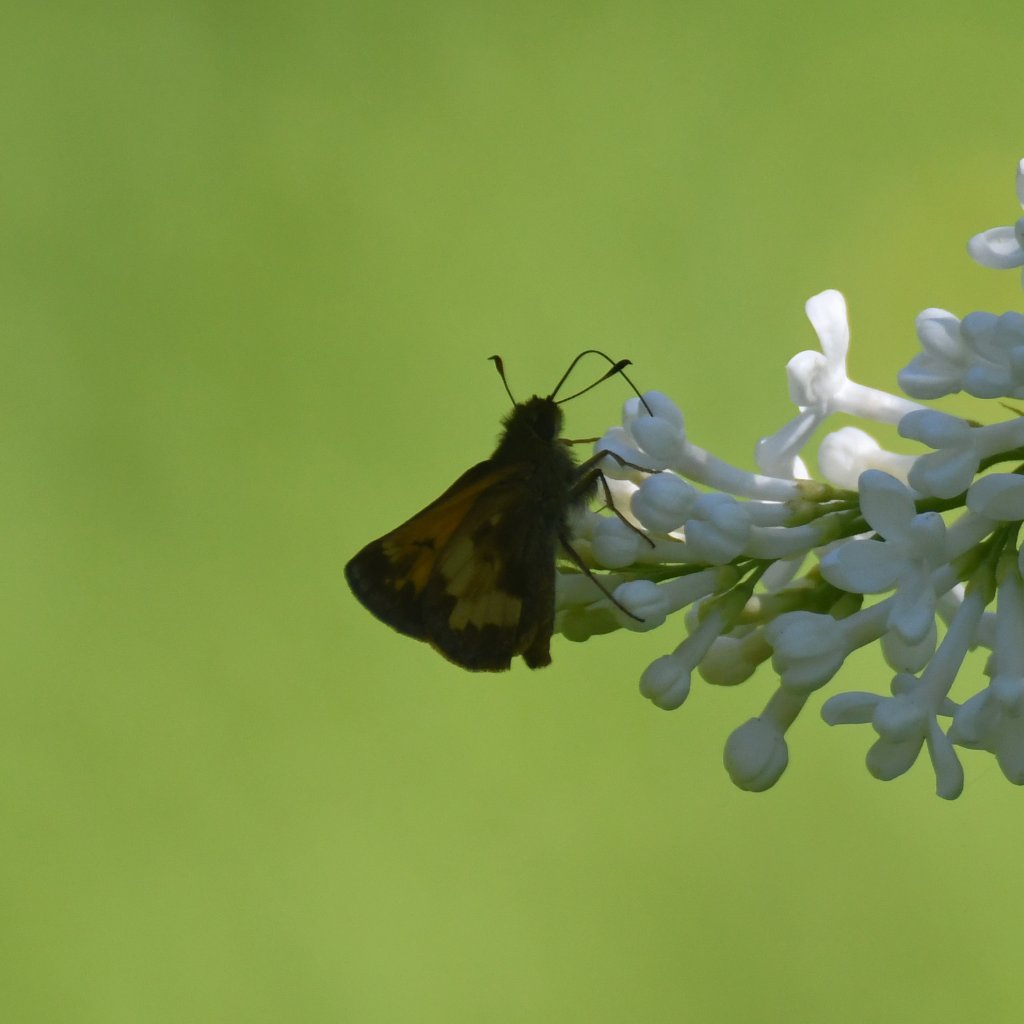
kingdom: Animalia
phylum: Arthropoda
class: Insecta
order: Lepidoptera
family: Hesperiidae
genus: Lon
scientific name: Lon hobomok
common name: Hobomok Skipper
